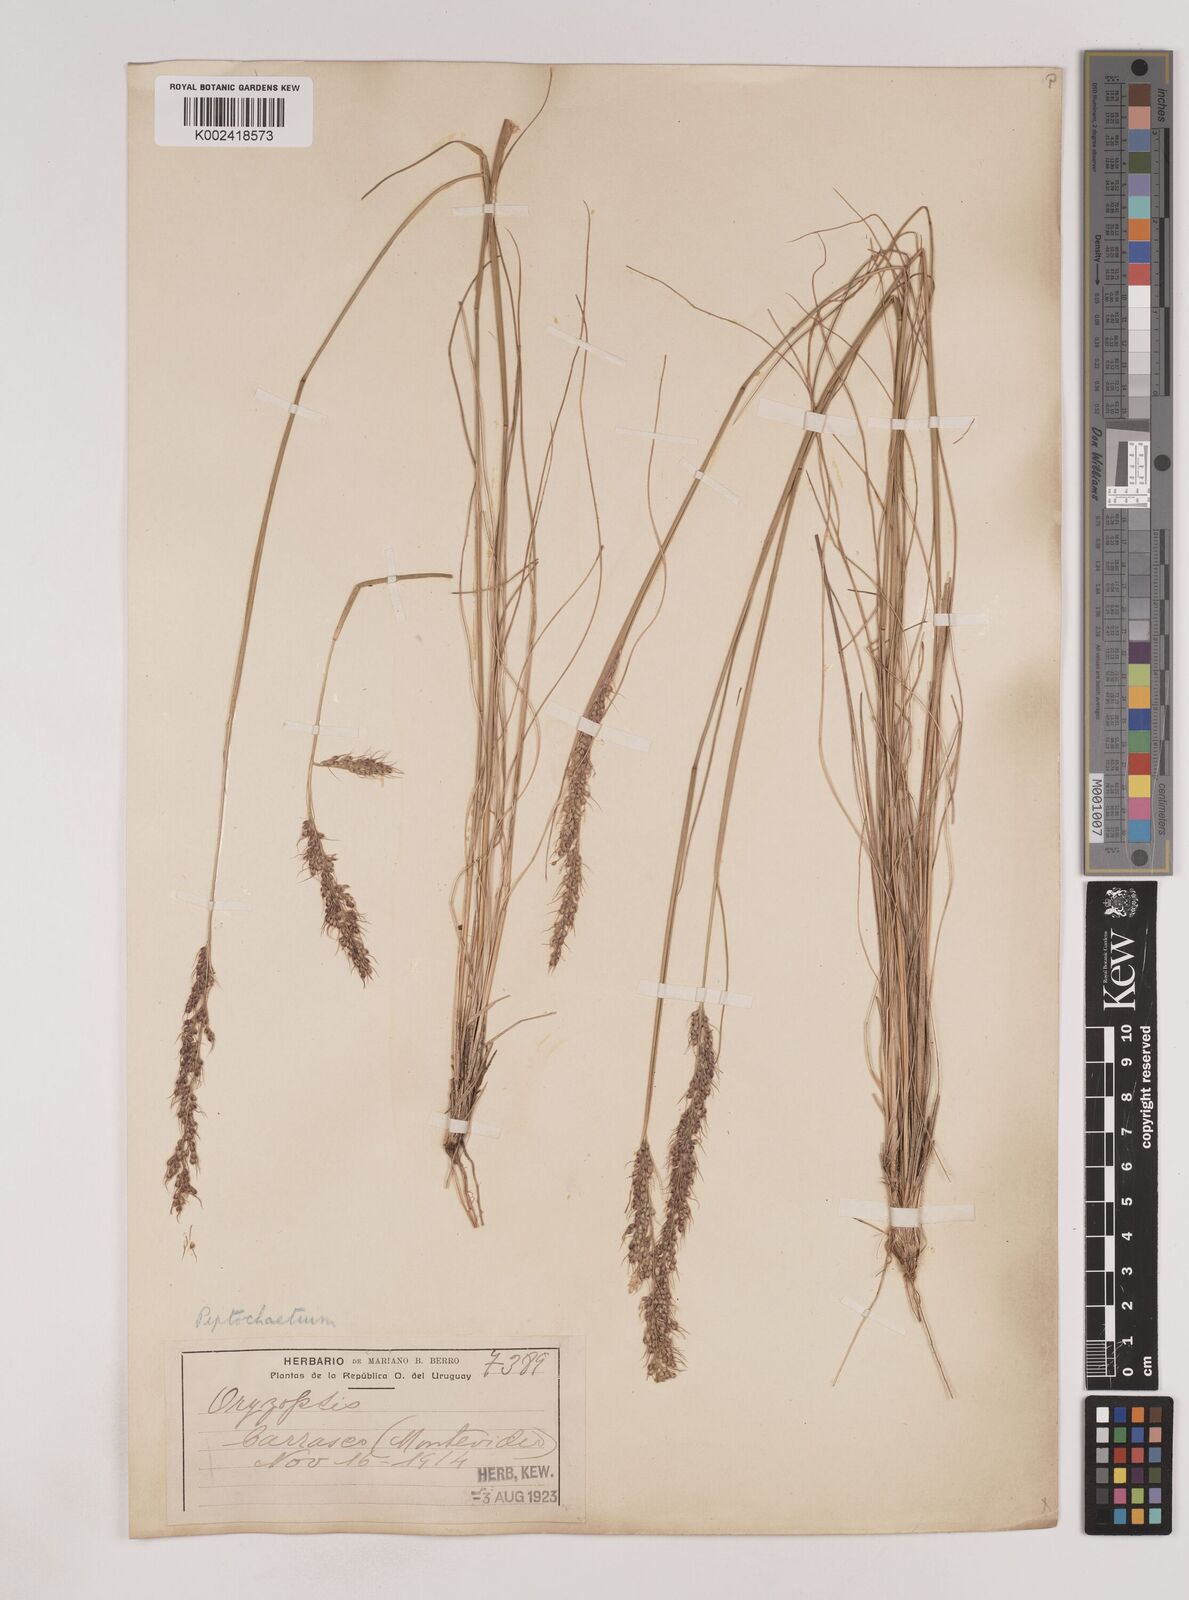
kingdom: Plantae
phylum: Tracheophyta
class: Liliopsida
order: Poales
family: Poaceae
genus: Piptochaetium
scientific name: Piptochaetium montevidense
